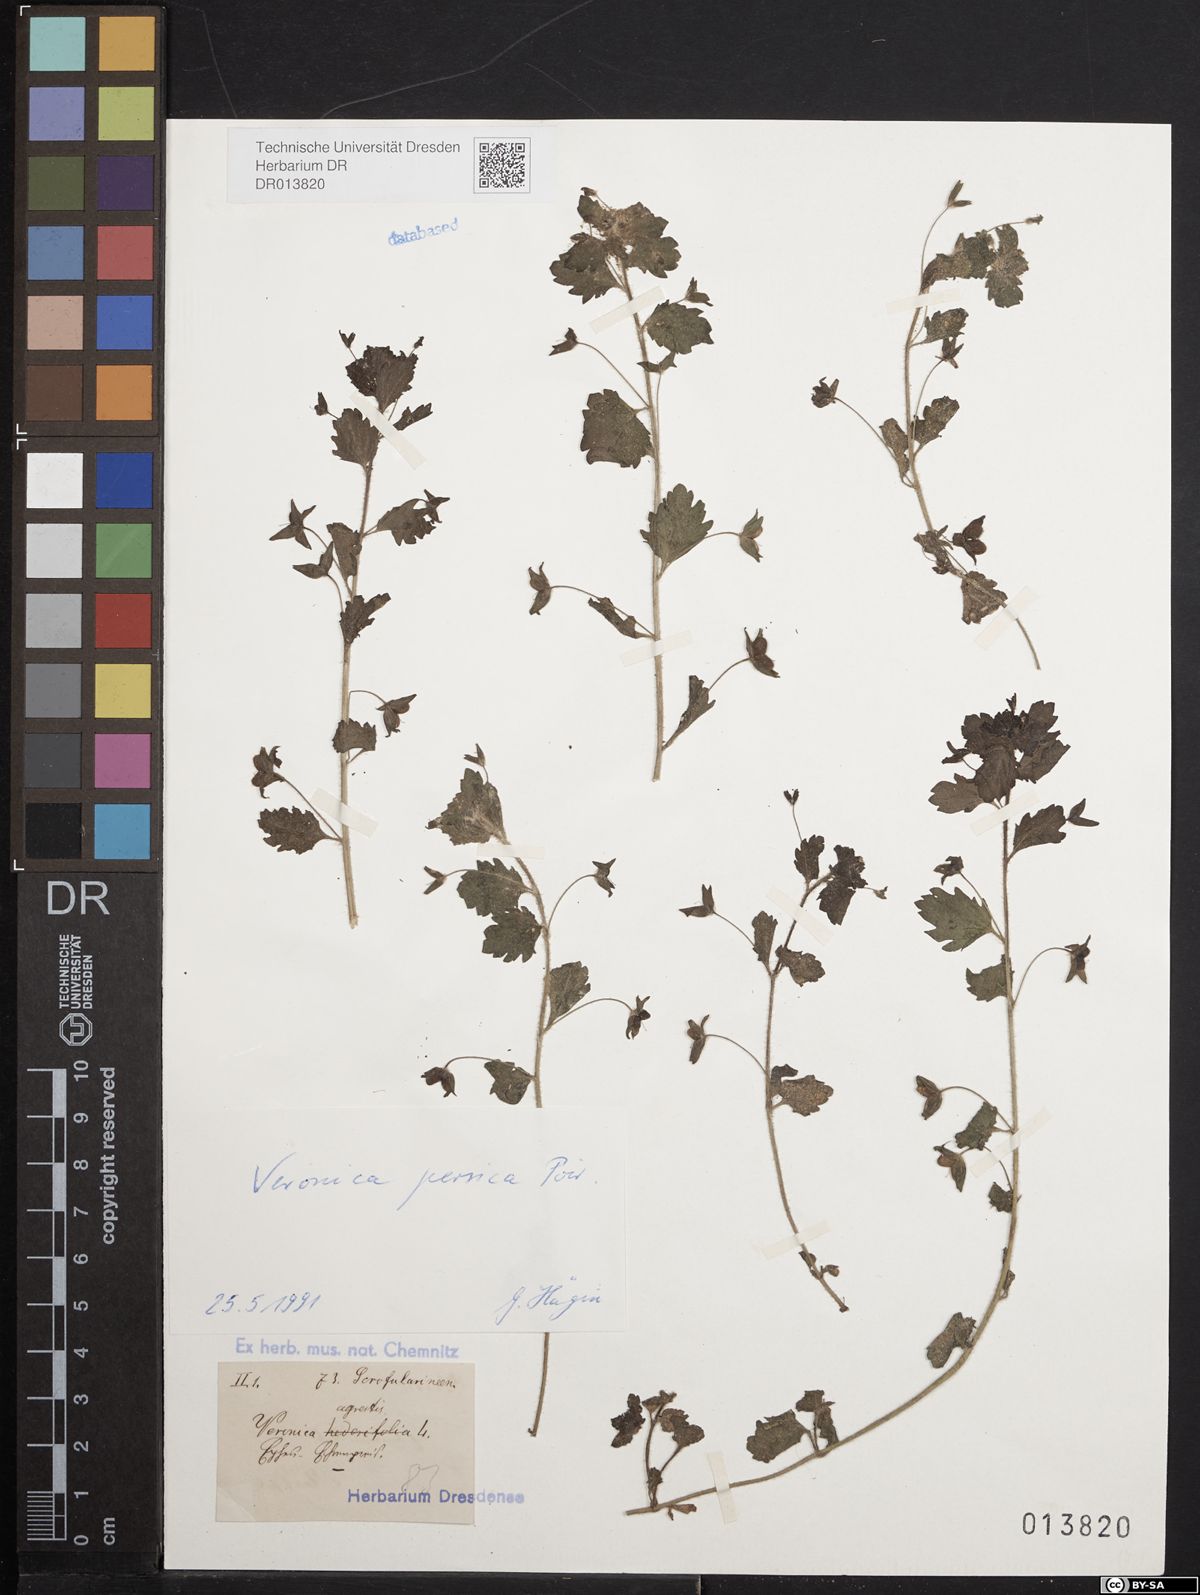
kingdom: Plantae
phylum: Tracheophyta
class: Magnoliopsida
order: Lamiales
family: Plantaginaceae
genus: Veronica
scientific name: Veronica persica
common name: Common field-speedwell
